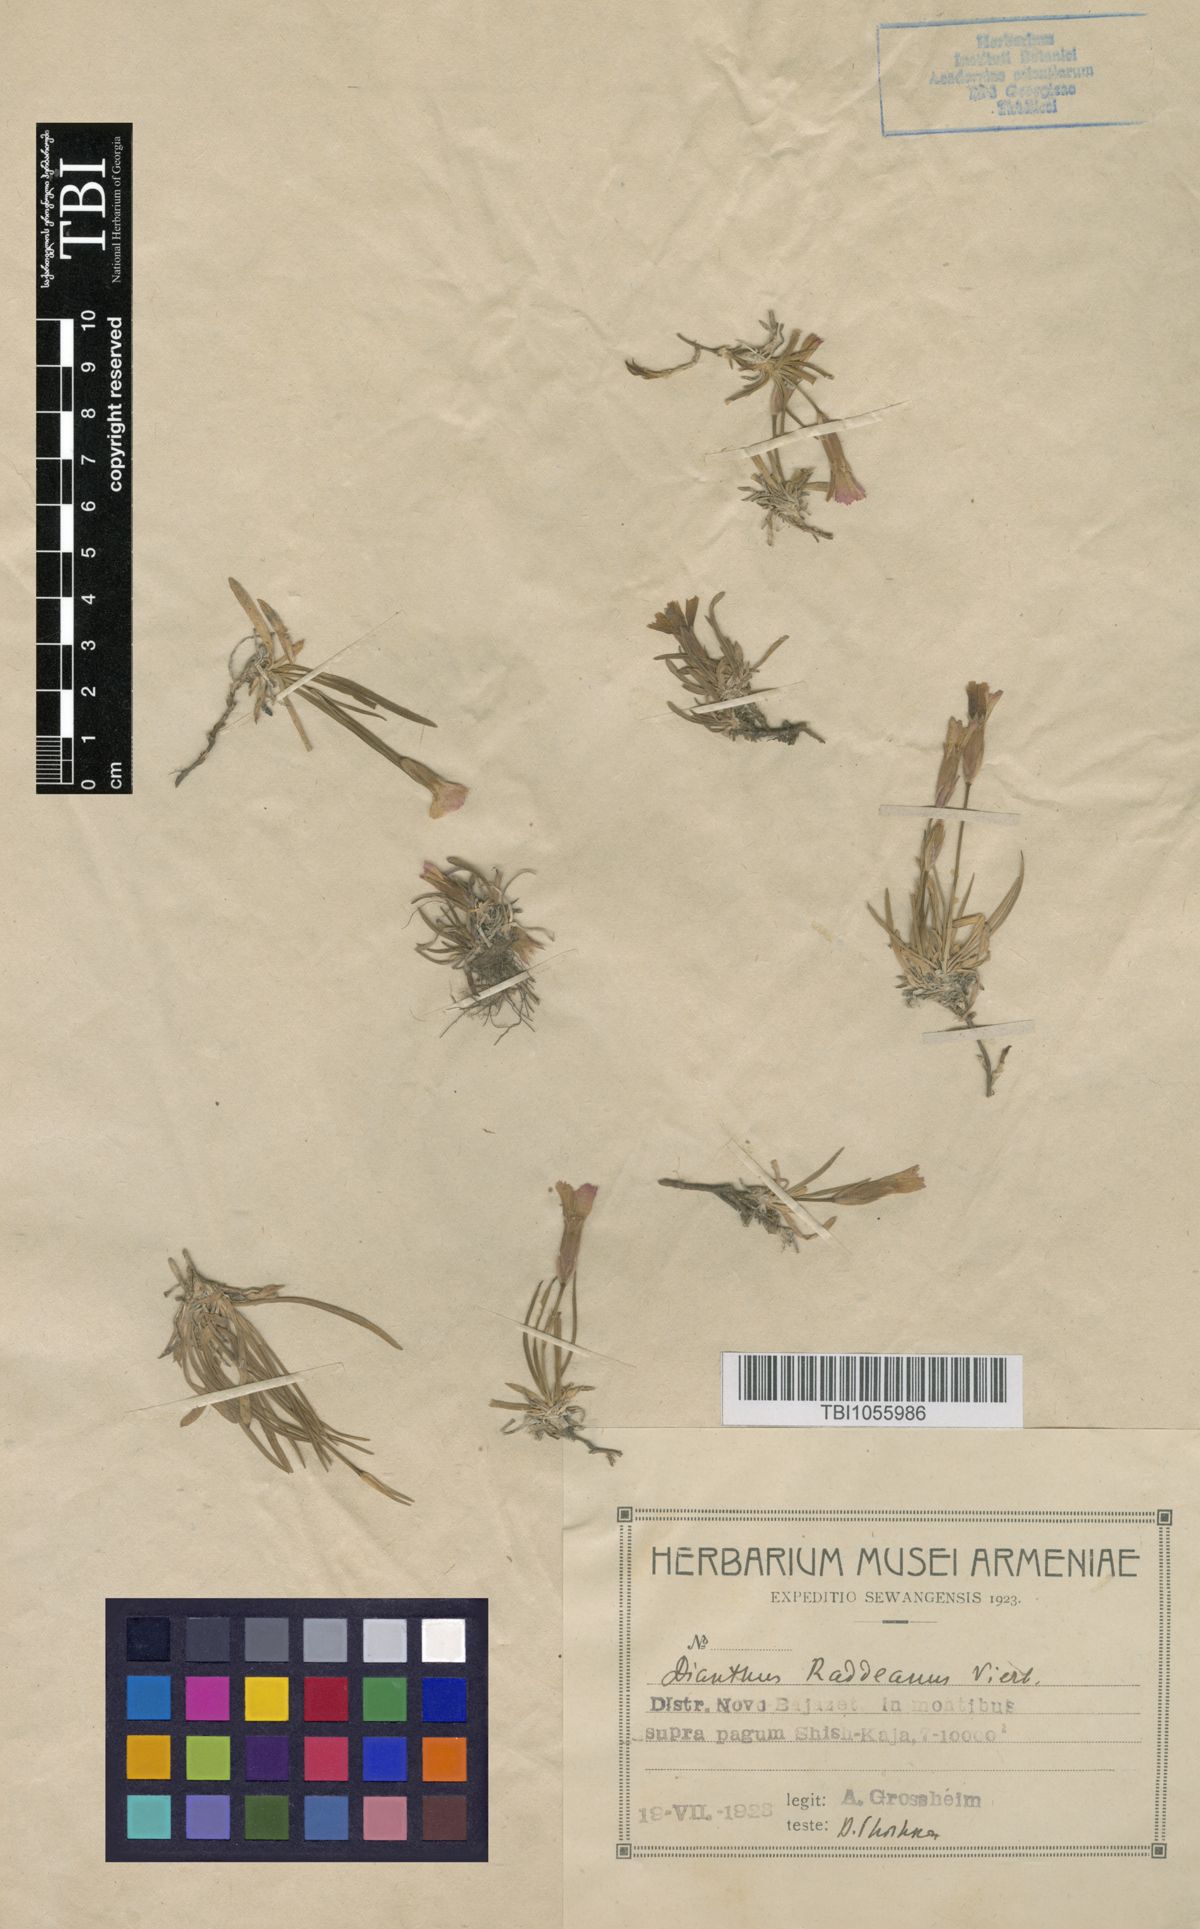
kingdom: Plantae
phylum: Tracheophyta
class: Magnoliopsida
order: Caryophyllales
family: Caryophyllaceae
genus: Dianthus
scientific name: Dianthus raddeanus
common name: Radde's pink
